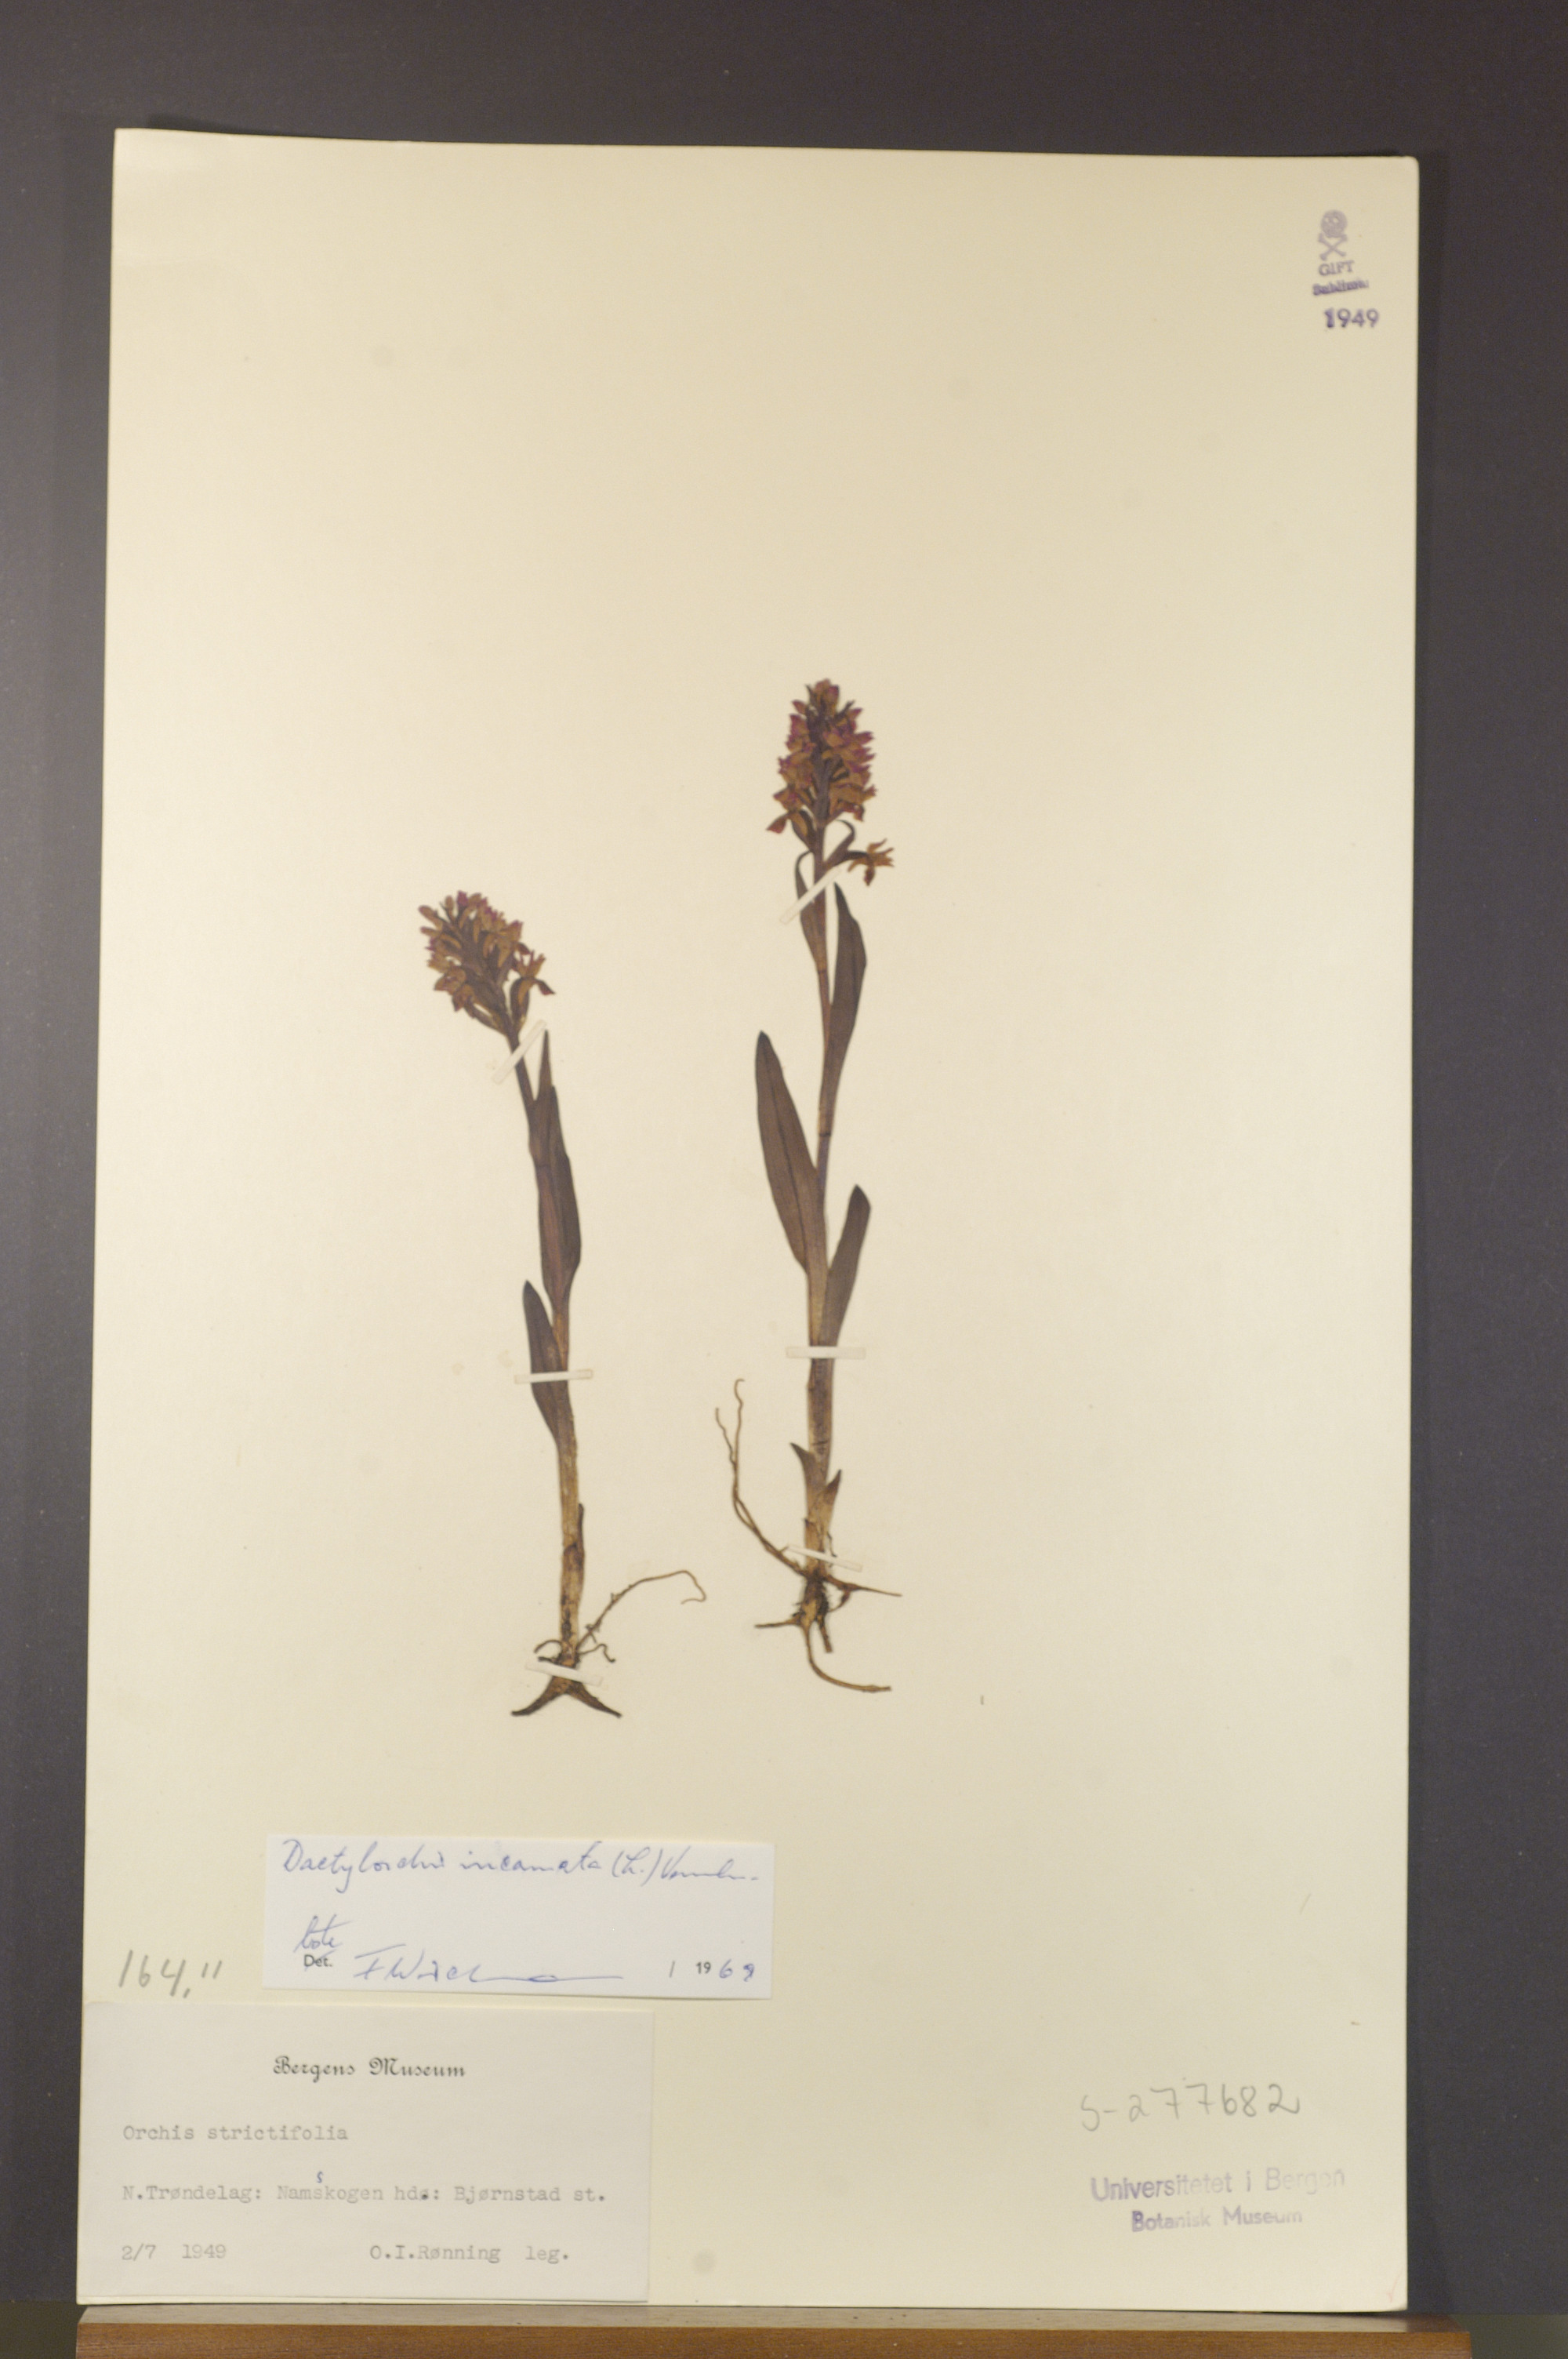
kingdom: Plantae
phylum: Tracheophyta
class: Liliopsida
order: Asparagales
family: Orchidaceae
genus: Dactylorhiza
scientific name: Dactylorhiza incarnata
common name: Early marsh-orchid
